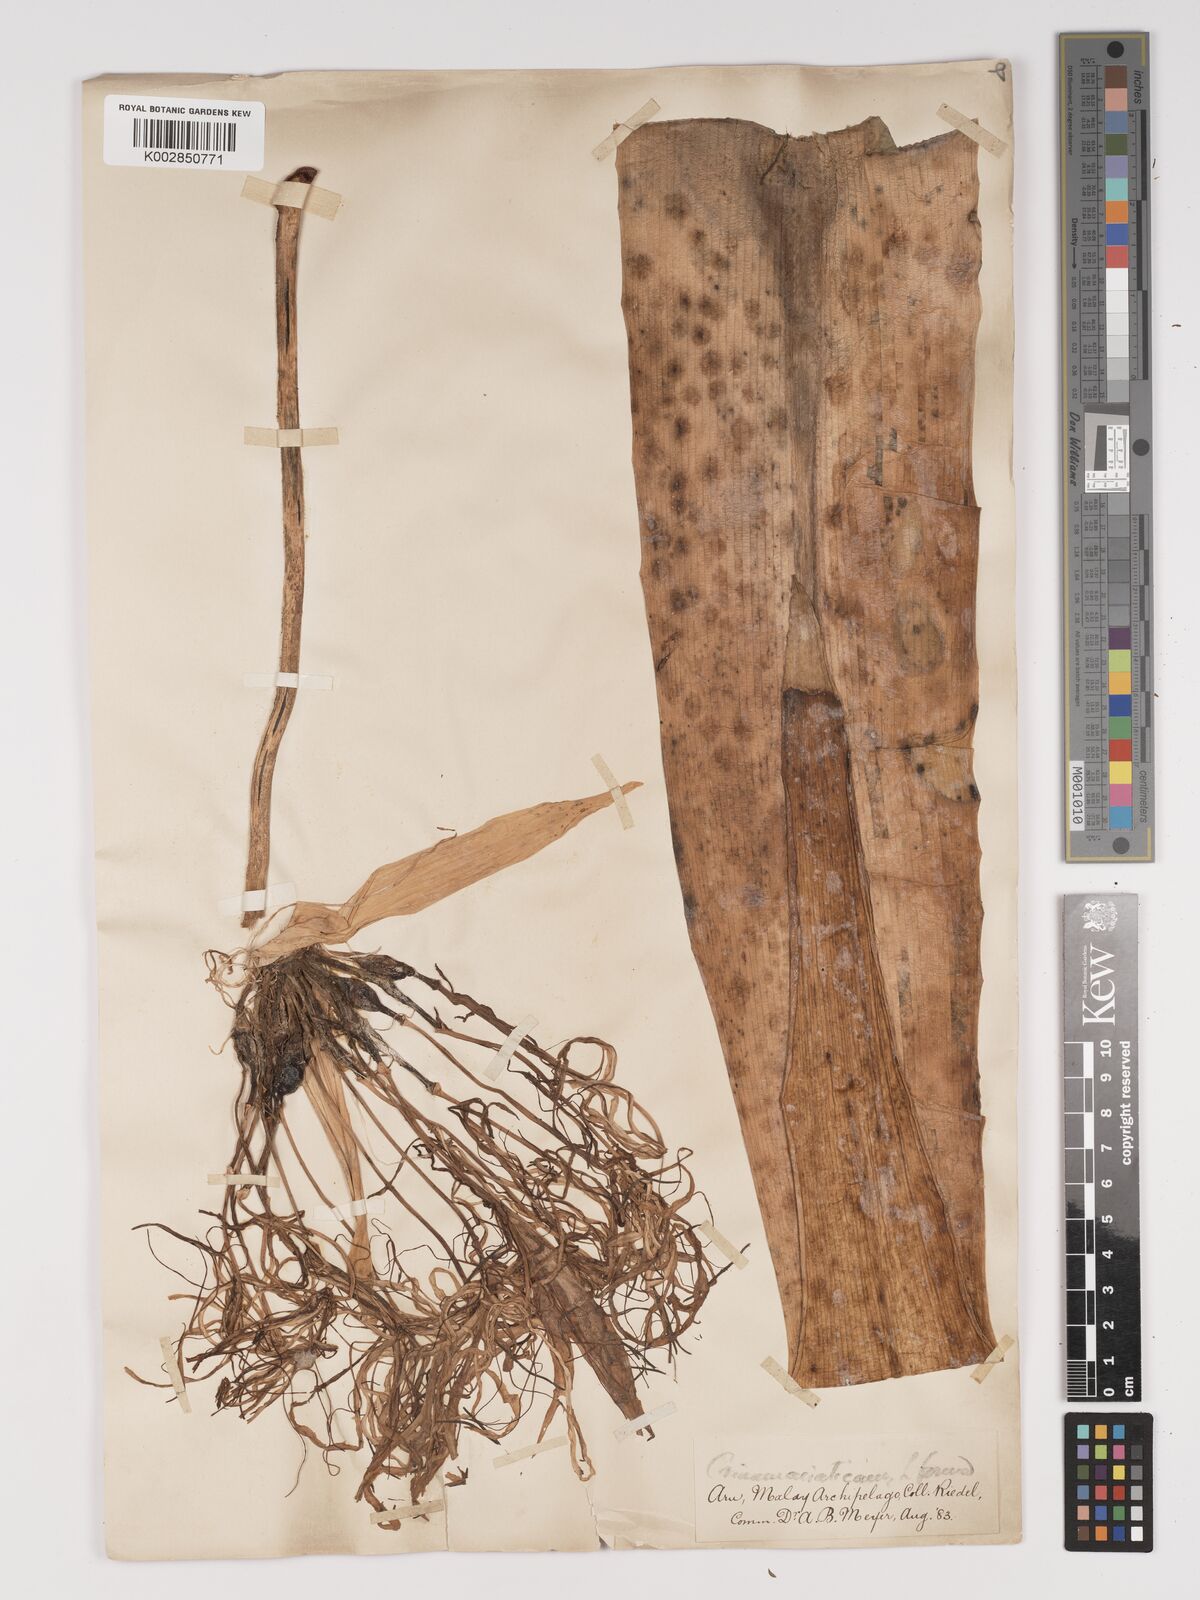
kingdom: Plantae
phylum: Tracheophyta
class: Liliopsida
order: Asparagales
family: Amaryllidaceae
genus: Crinum
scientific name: Crinum asiaticum
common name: Poisonbulb
